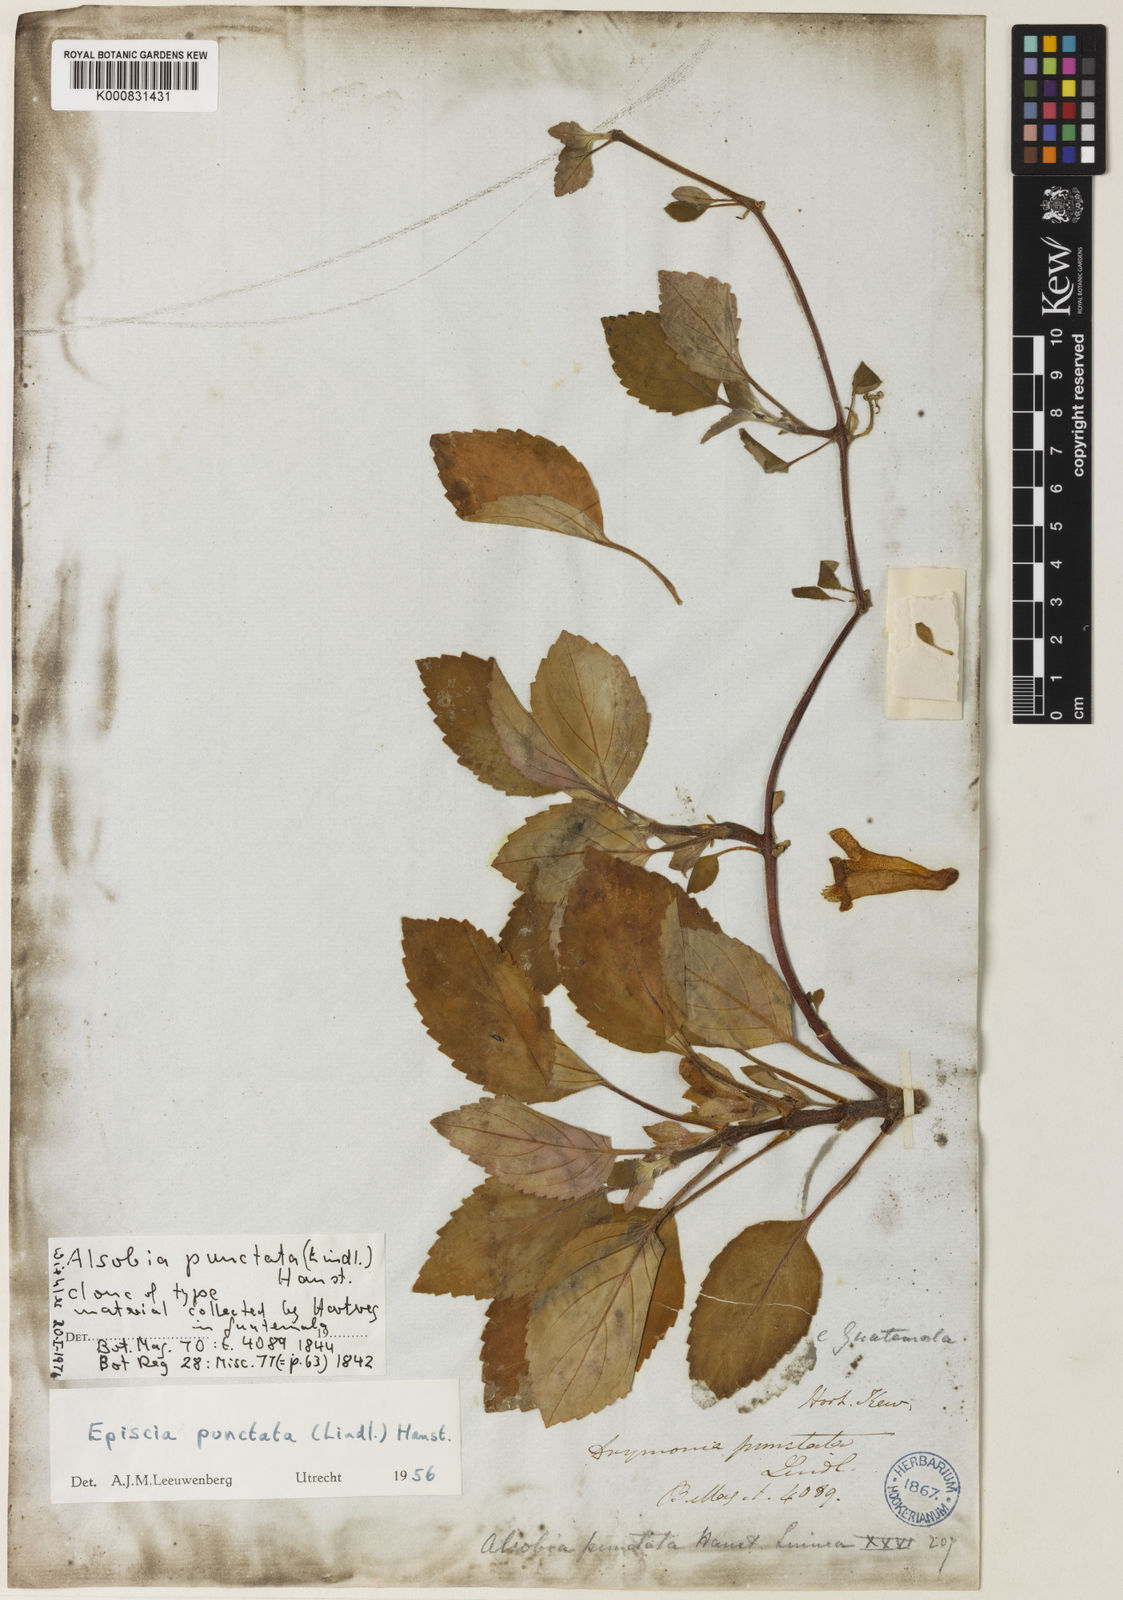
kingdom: Plantae
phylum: Tracheophyta
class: Magnoliopsida
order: Lamiales
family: Gesneriaceae
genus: Alsobia
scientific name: Alsobia punctata
